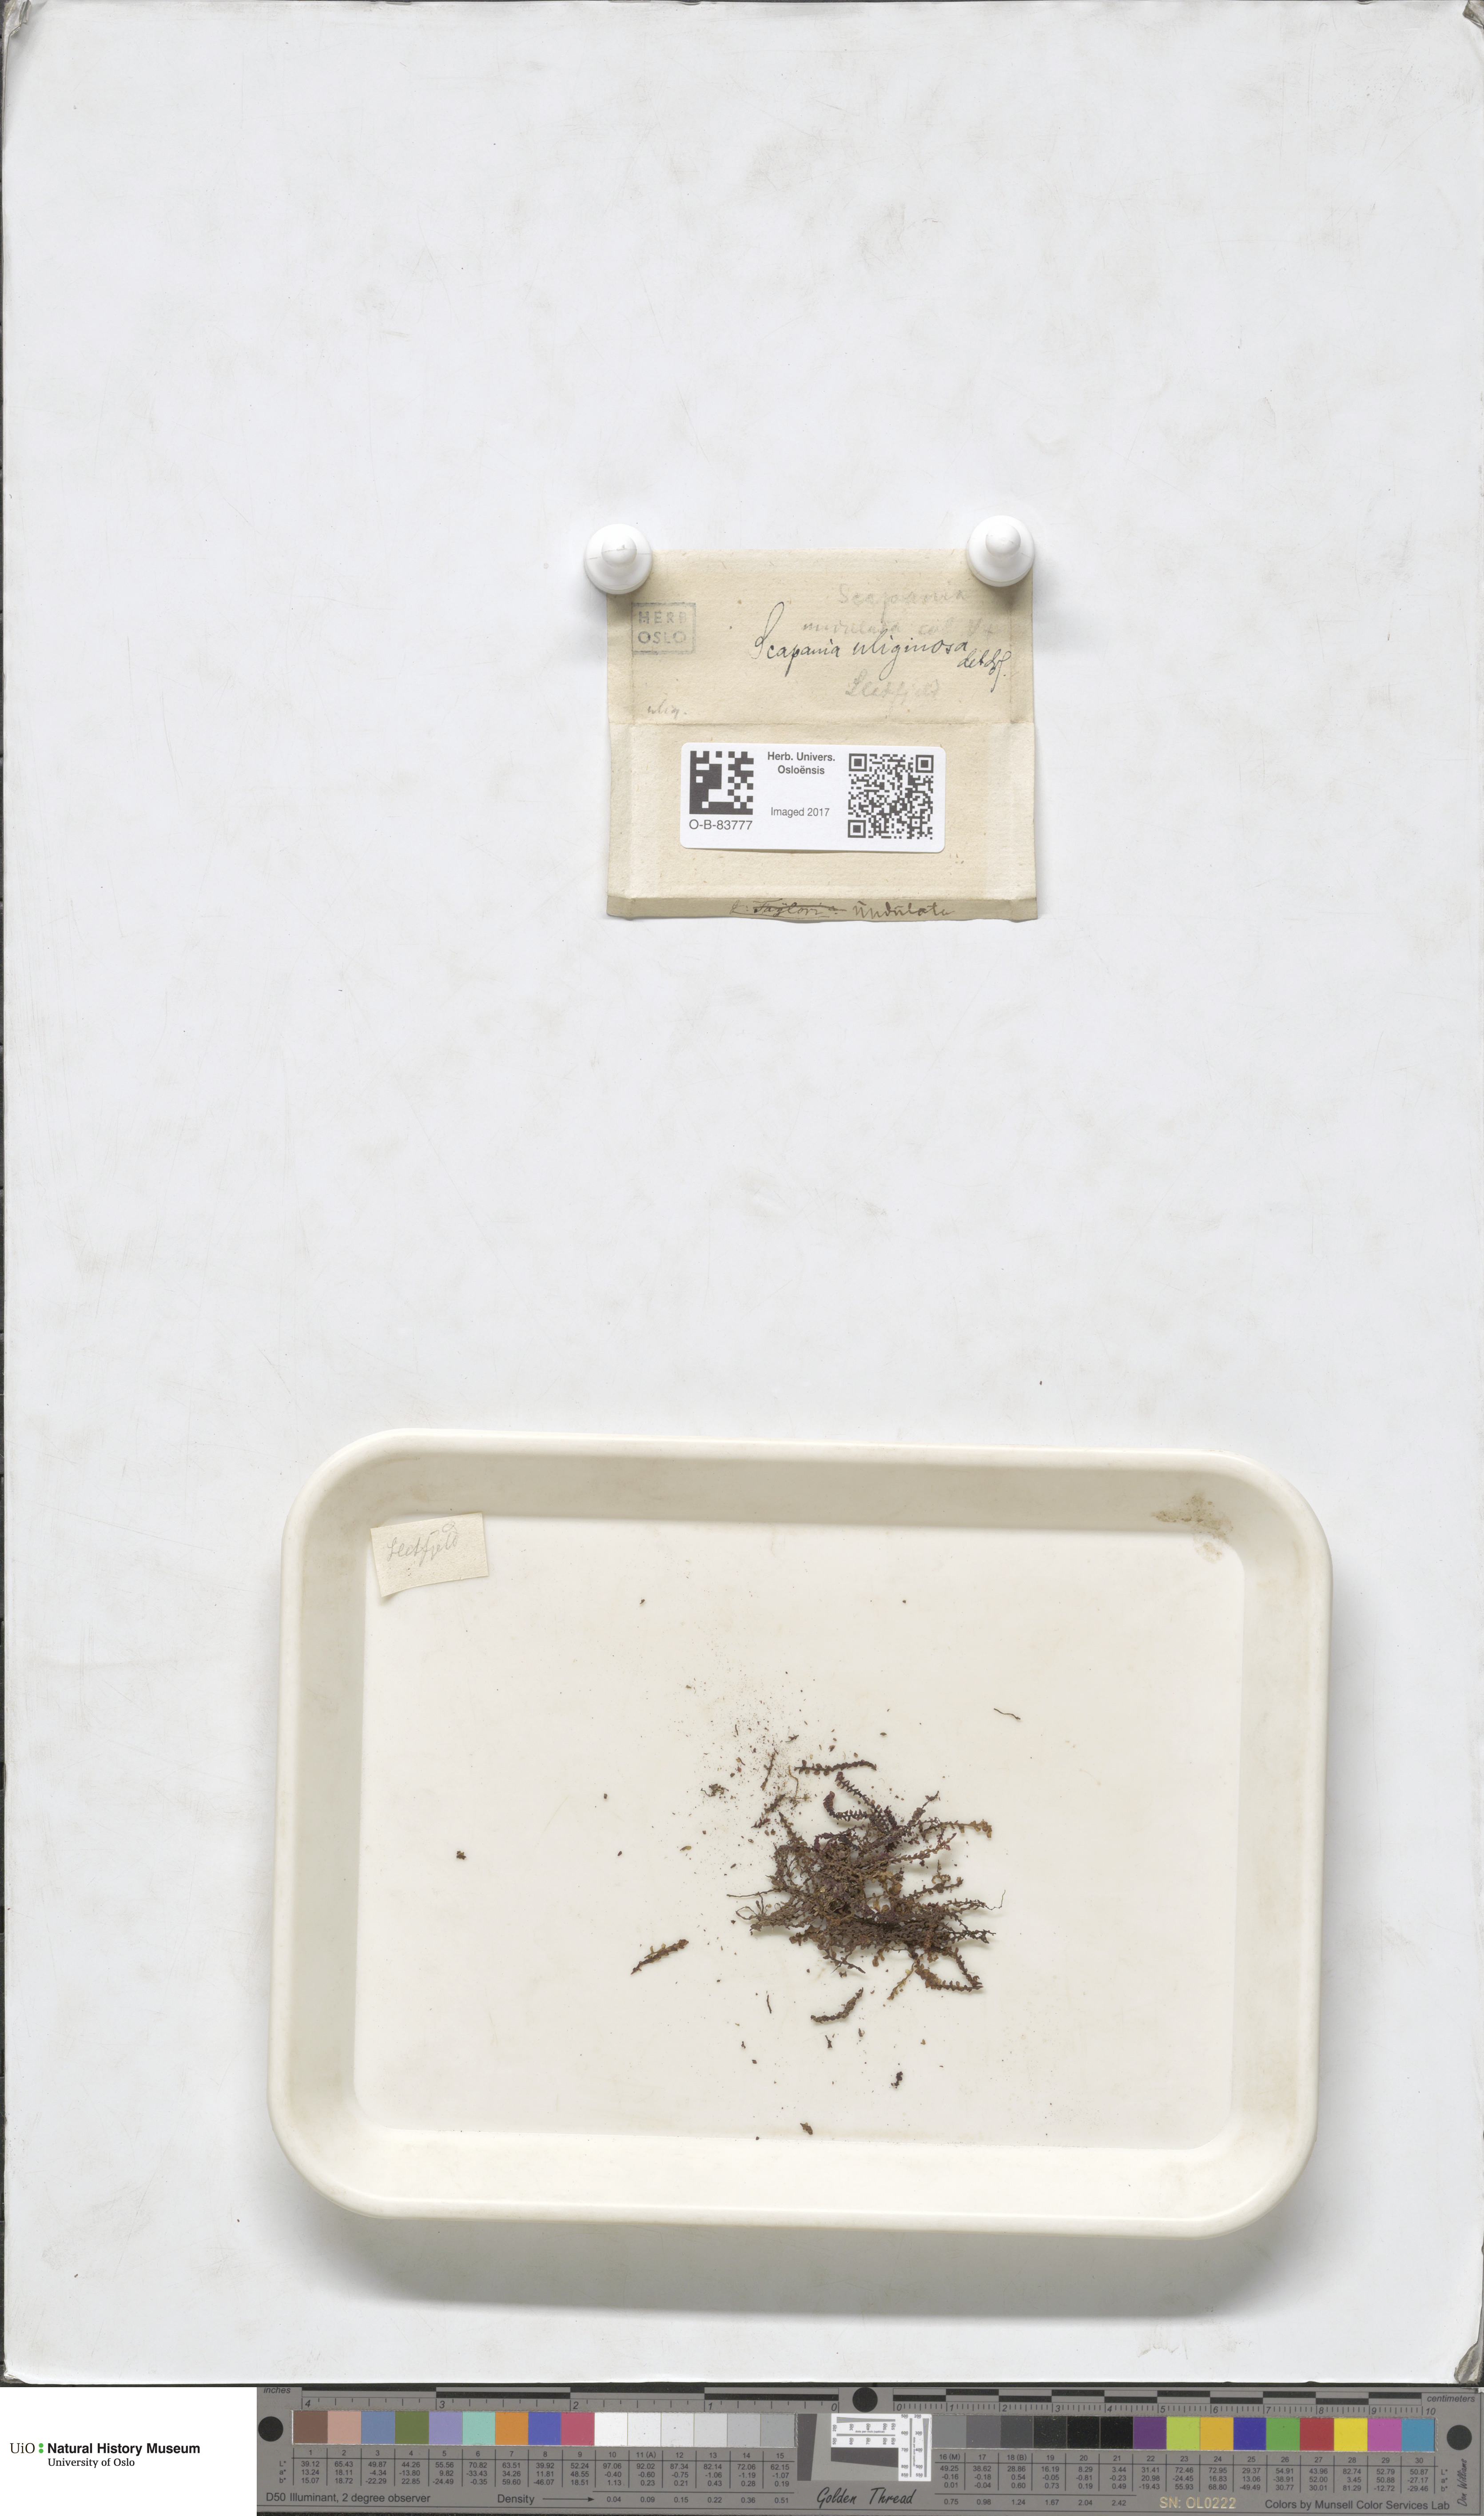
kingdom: Plantae
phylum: Marchantiophyta
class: Jungermanniopsida
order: Jungermanniales
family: Scapaniaceae
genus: Scapania
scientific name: Scapania uliginosa
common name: Marsh earwort
